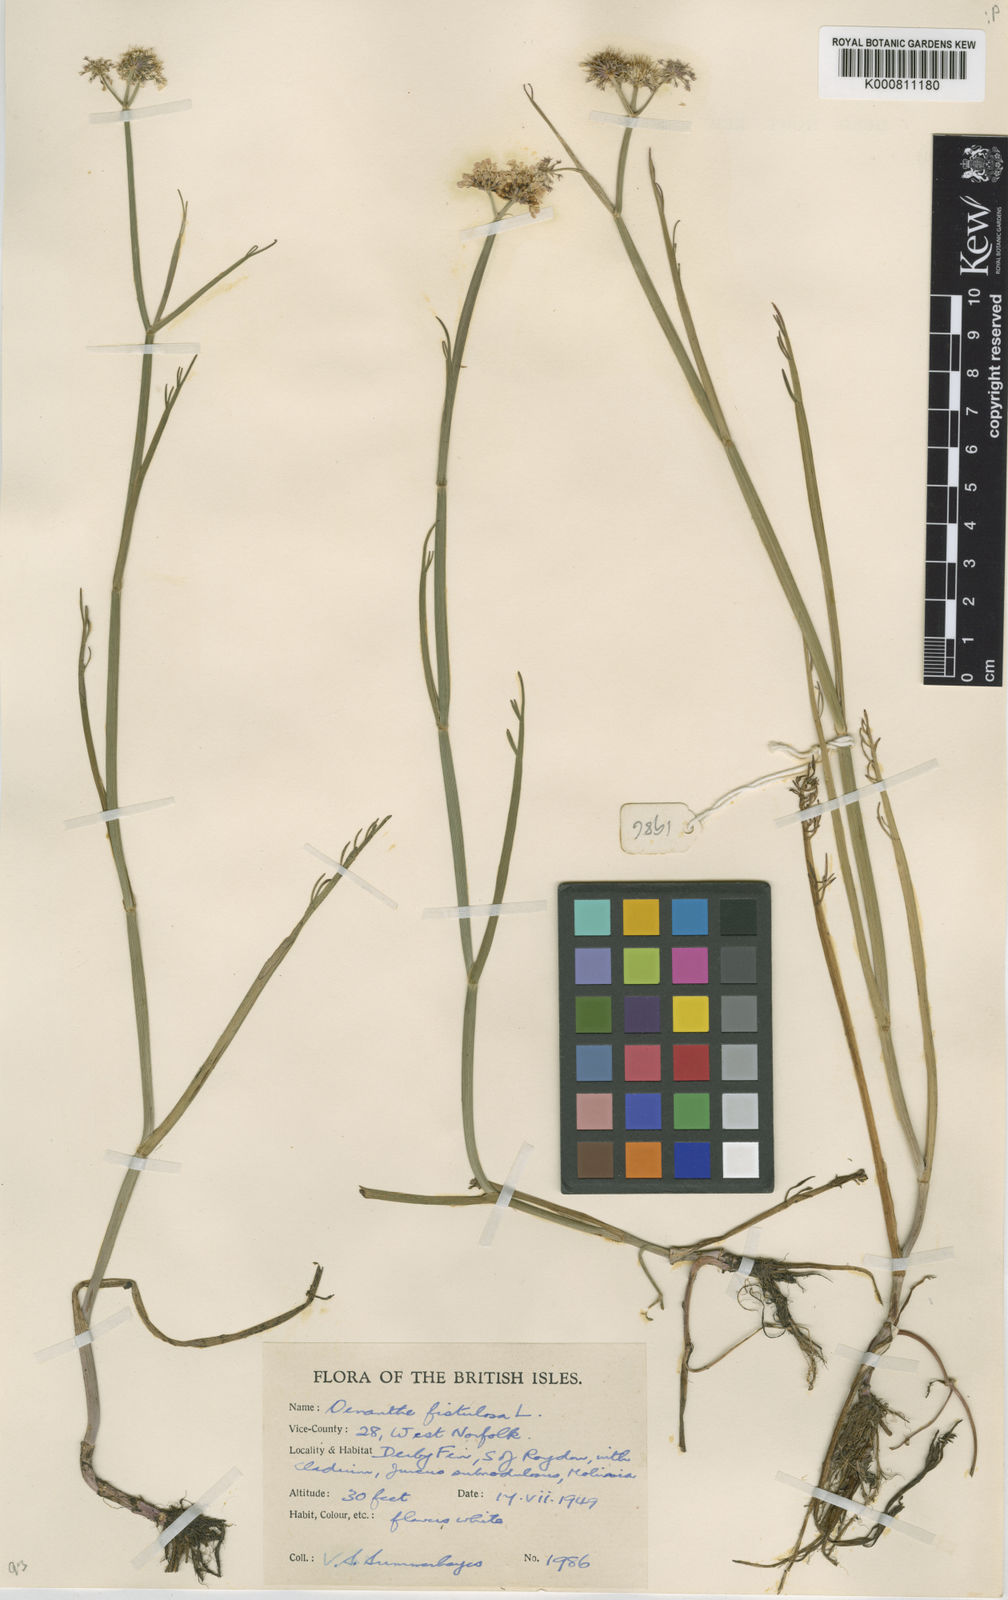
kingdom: Plantae
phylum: Tracheophyta
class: Magnoliopsida
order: Apiales
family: Apiaceae
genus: Oenanthe
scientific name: Oenanthe fistulosa
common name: Tubular water-dropwort
